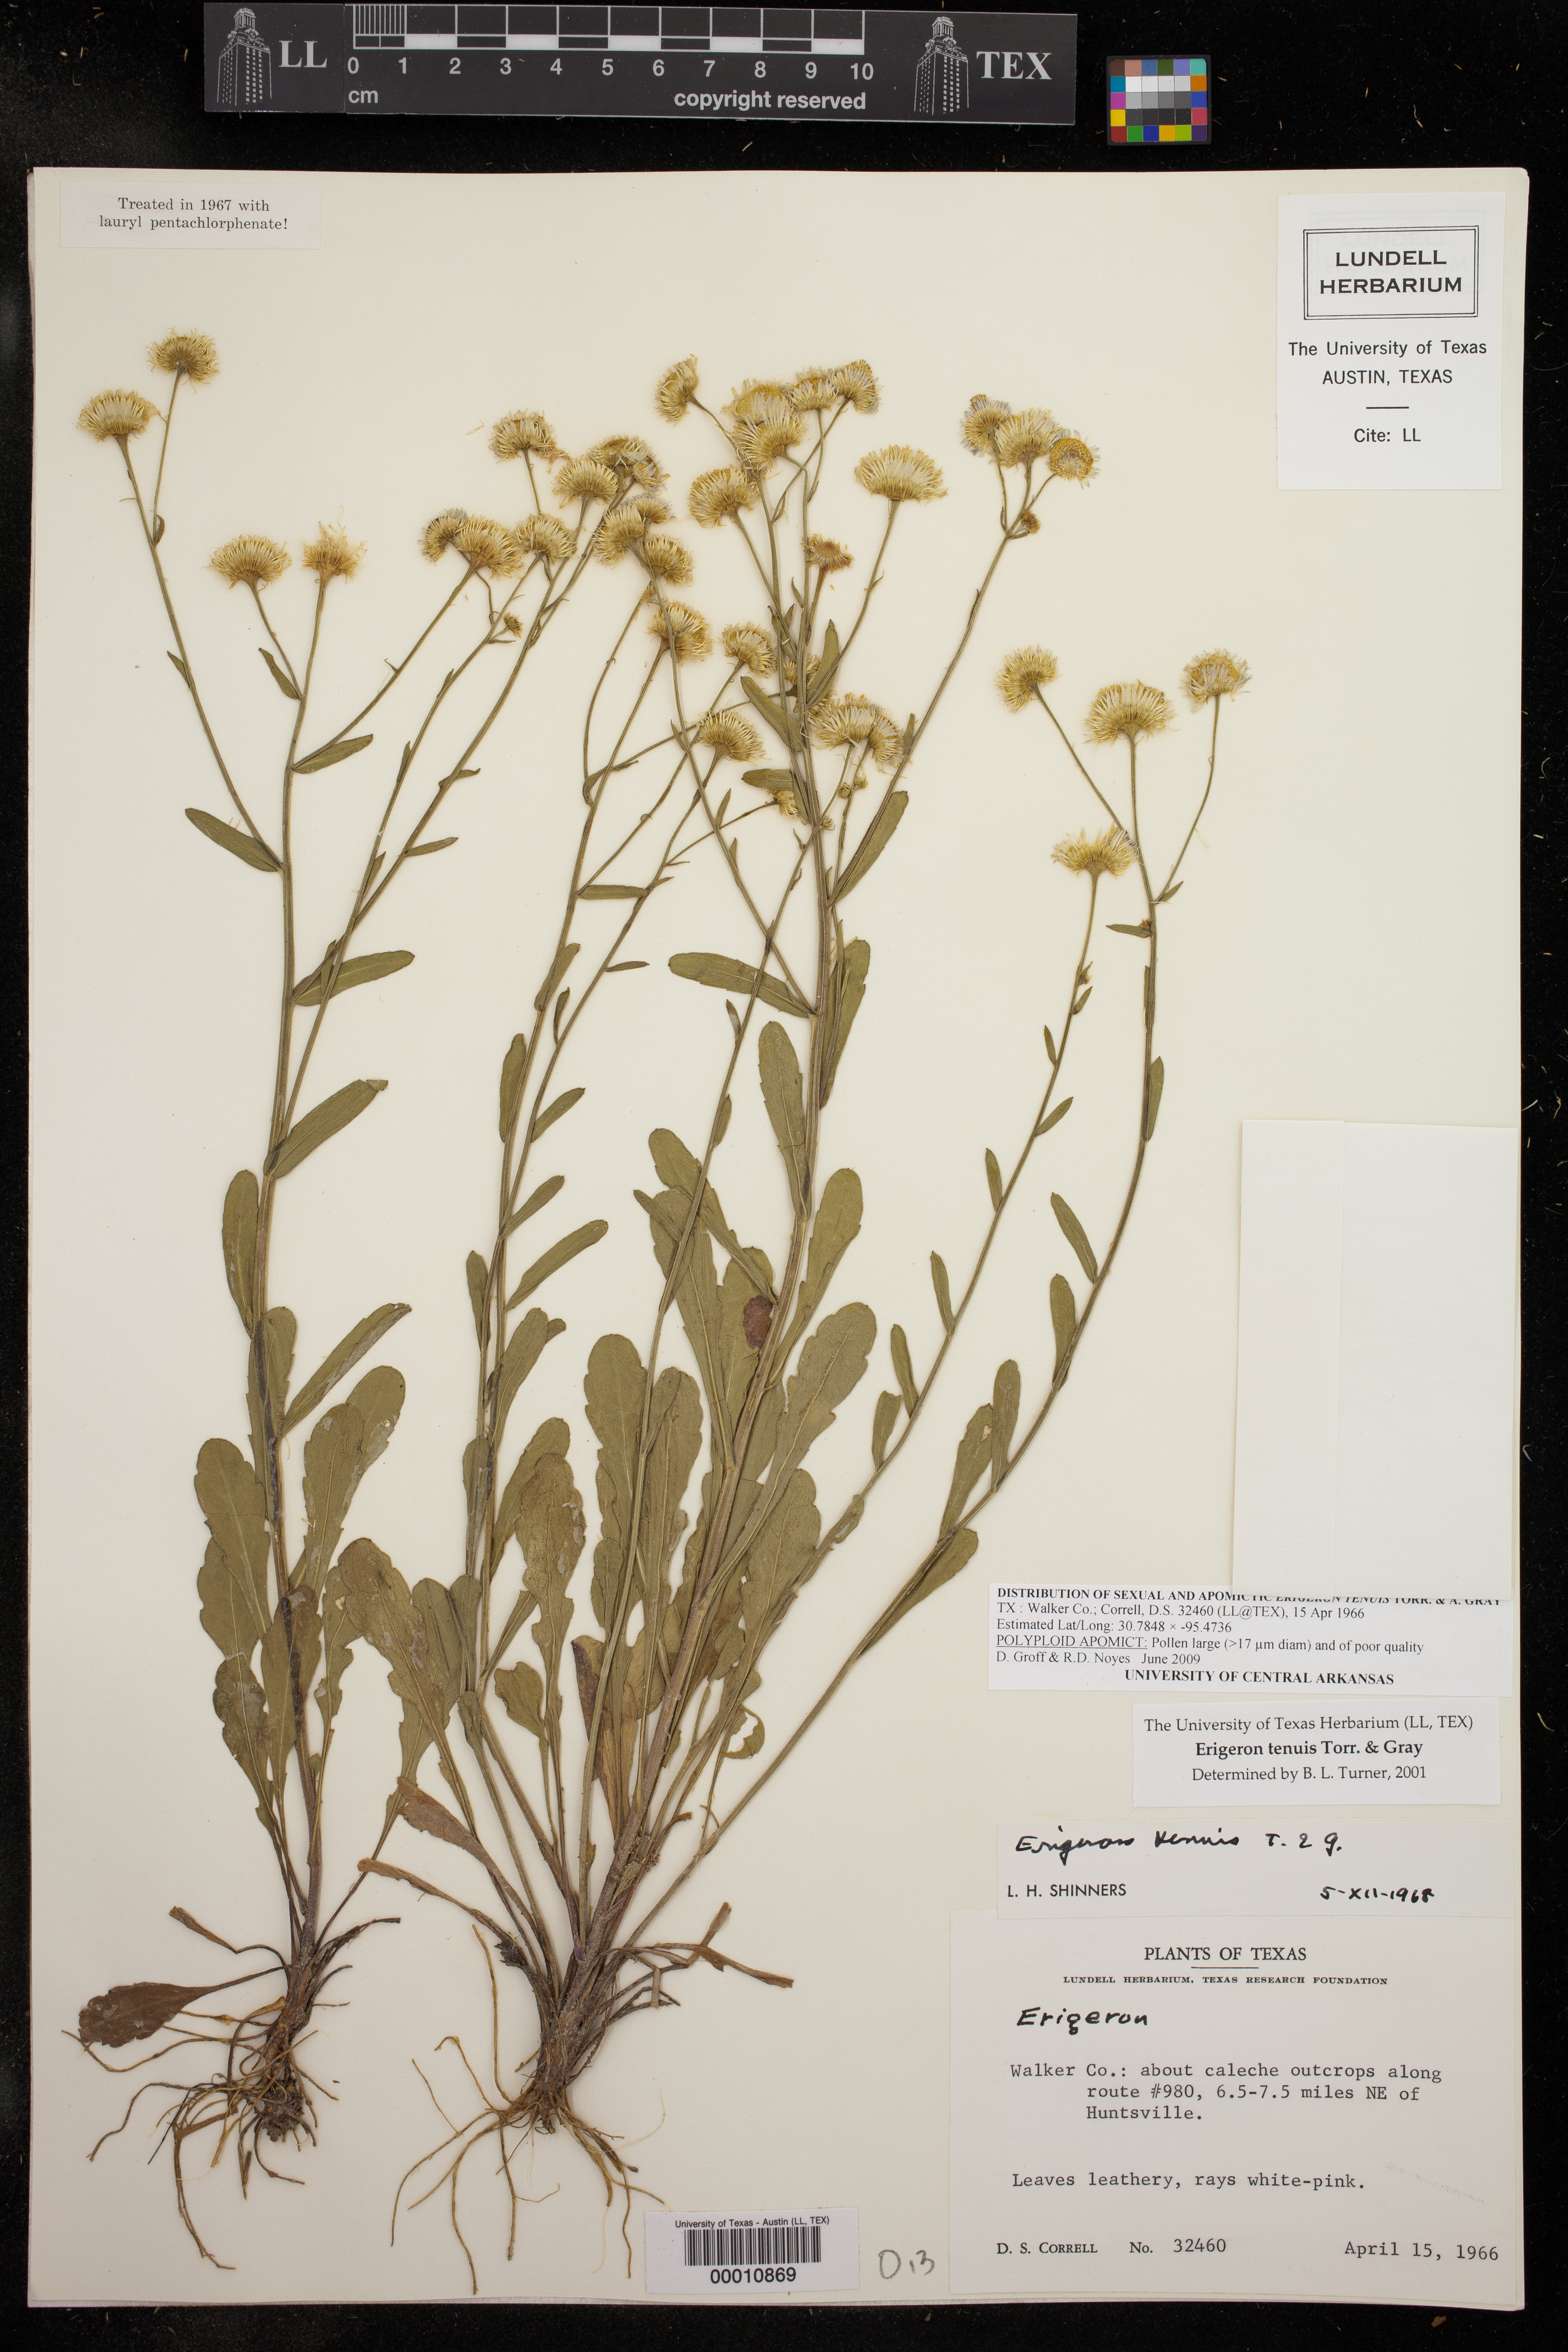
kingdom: Plantae
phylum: Tracheophyta
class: Magnoliopsida
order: Asterales
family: Asteraceae
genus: Erigeron
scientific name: Erigeron tenuis
